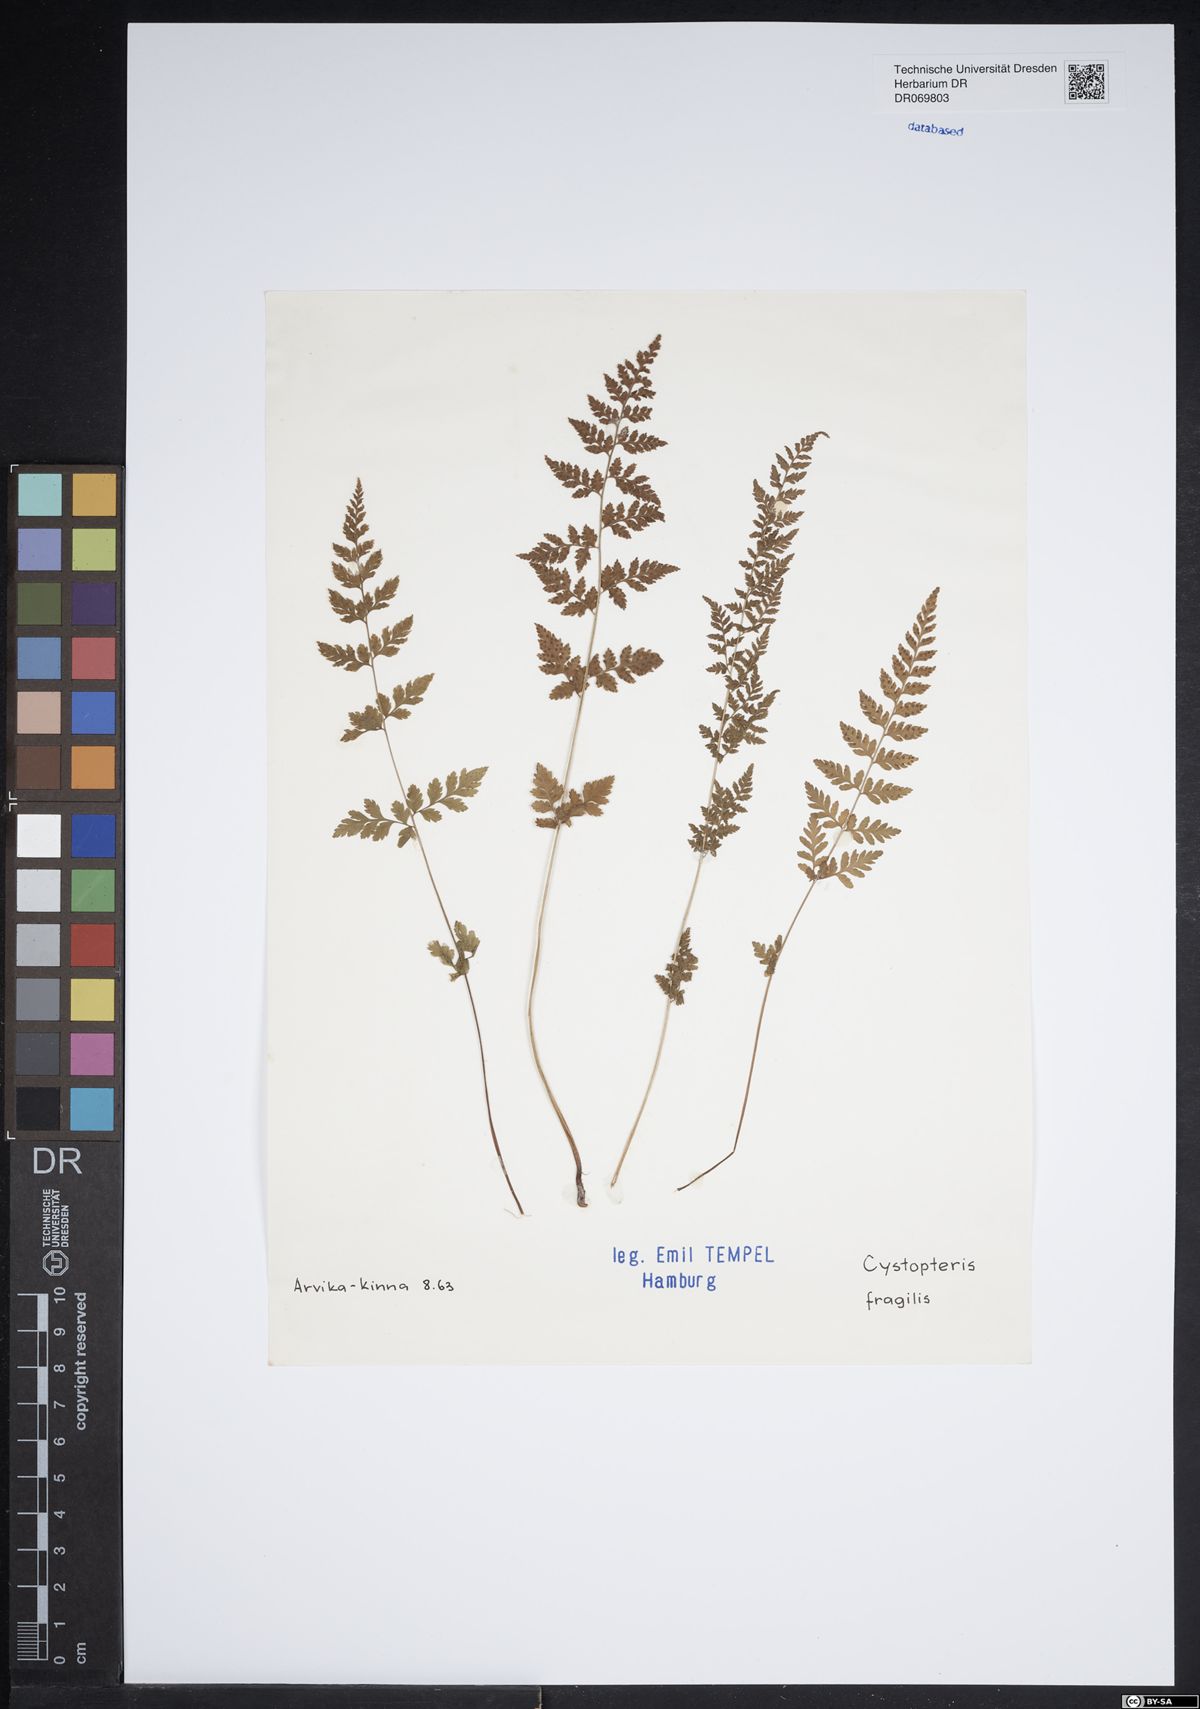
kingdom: Plantae
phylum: Tracheophyta
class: Polypodiopsida
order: Polypodiales
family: Cystopteridaceae
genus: Cystopteris
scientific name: Cystopteris fragilis
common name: Brittle bladder fern
